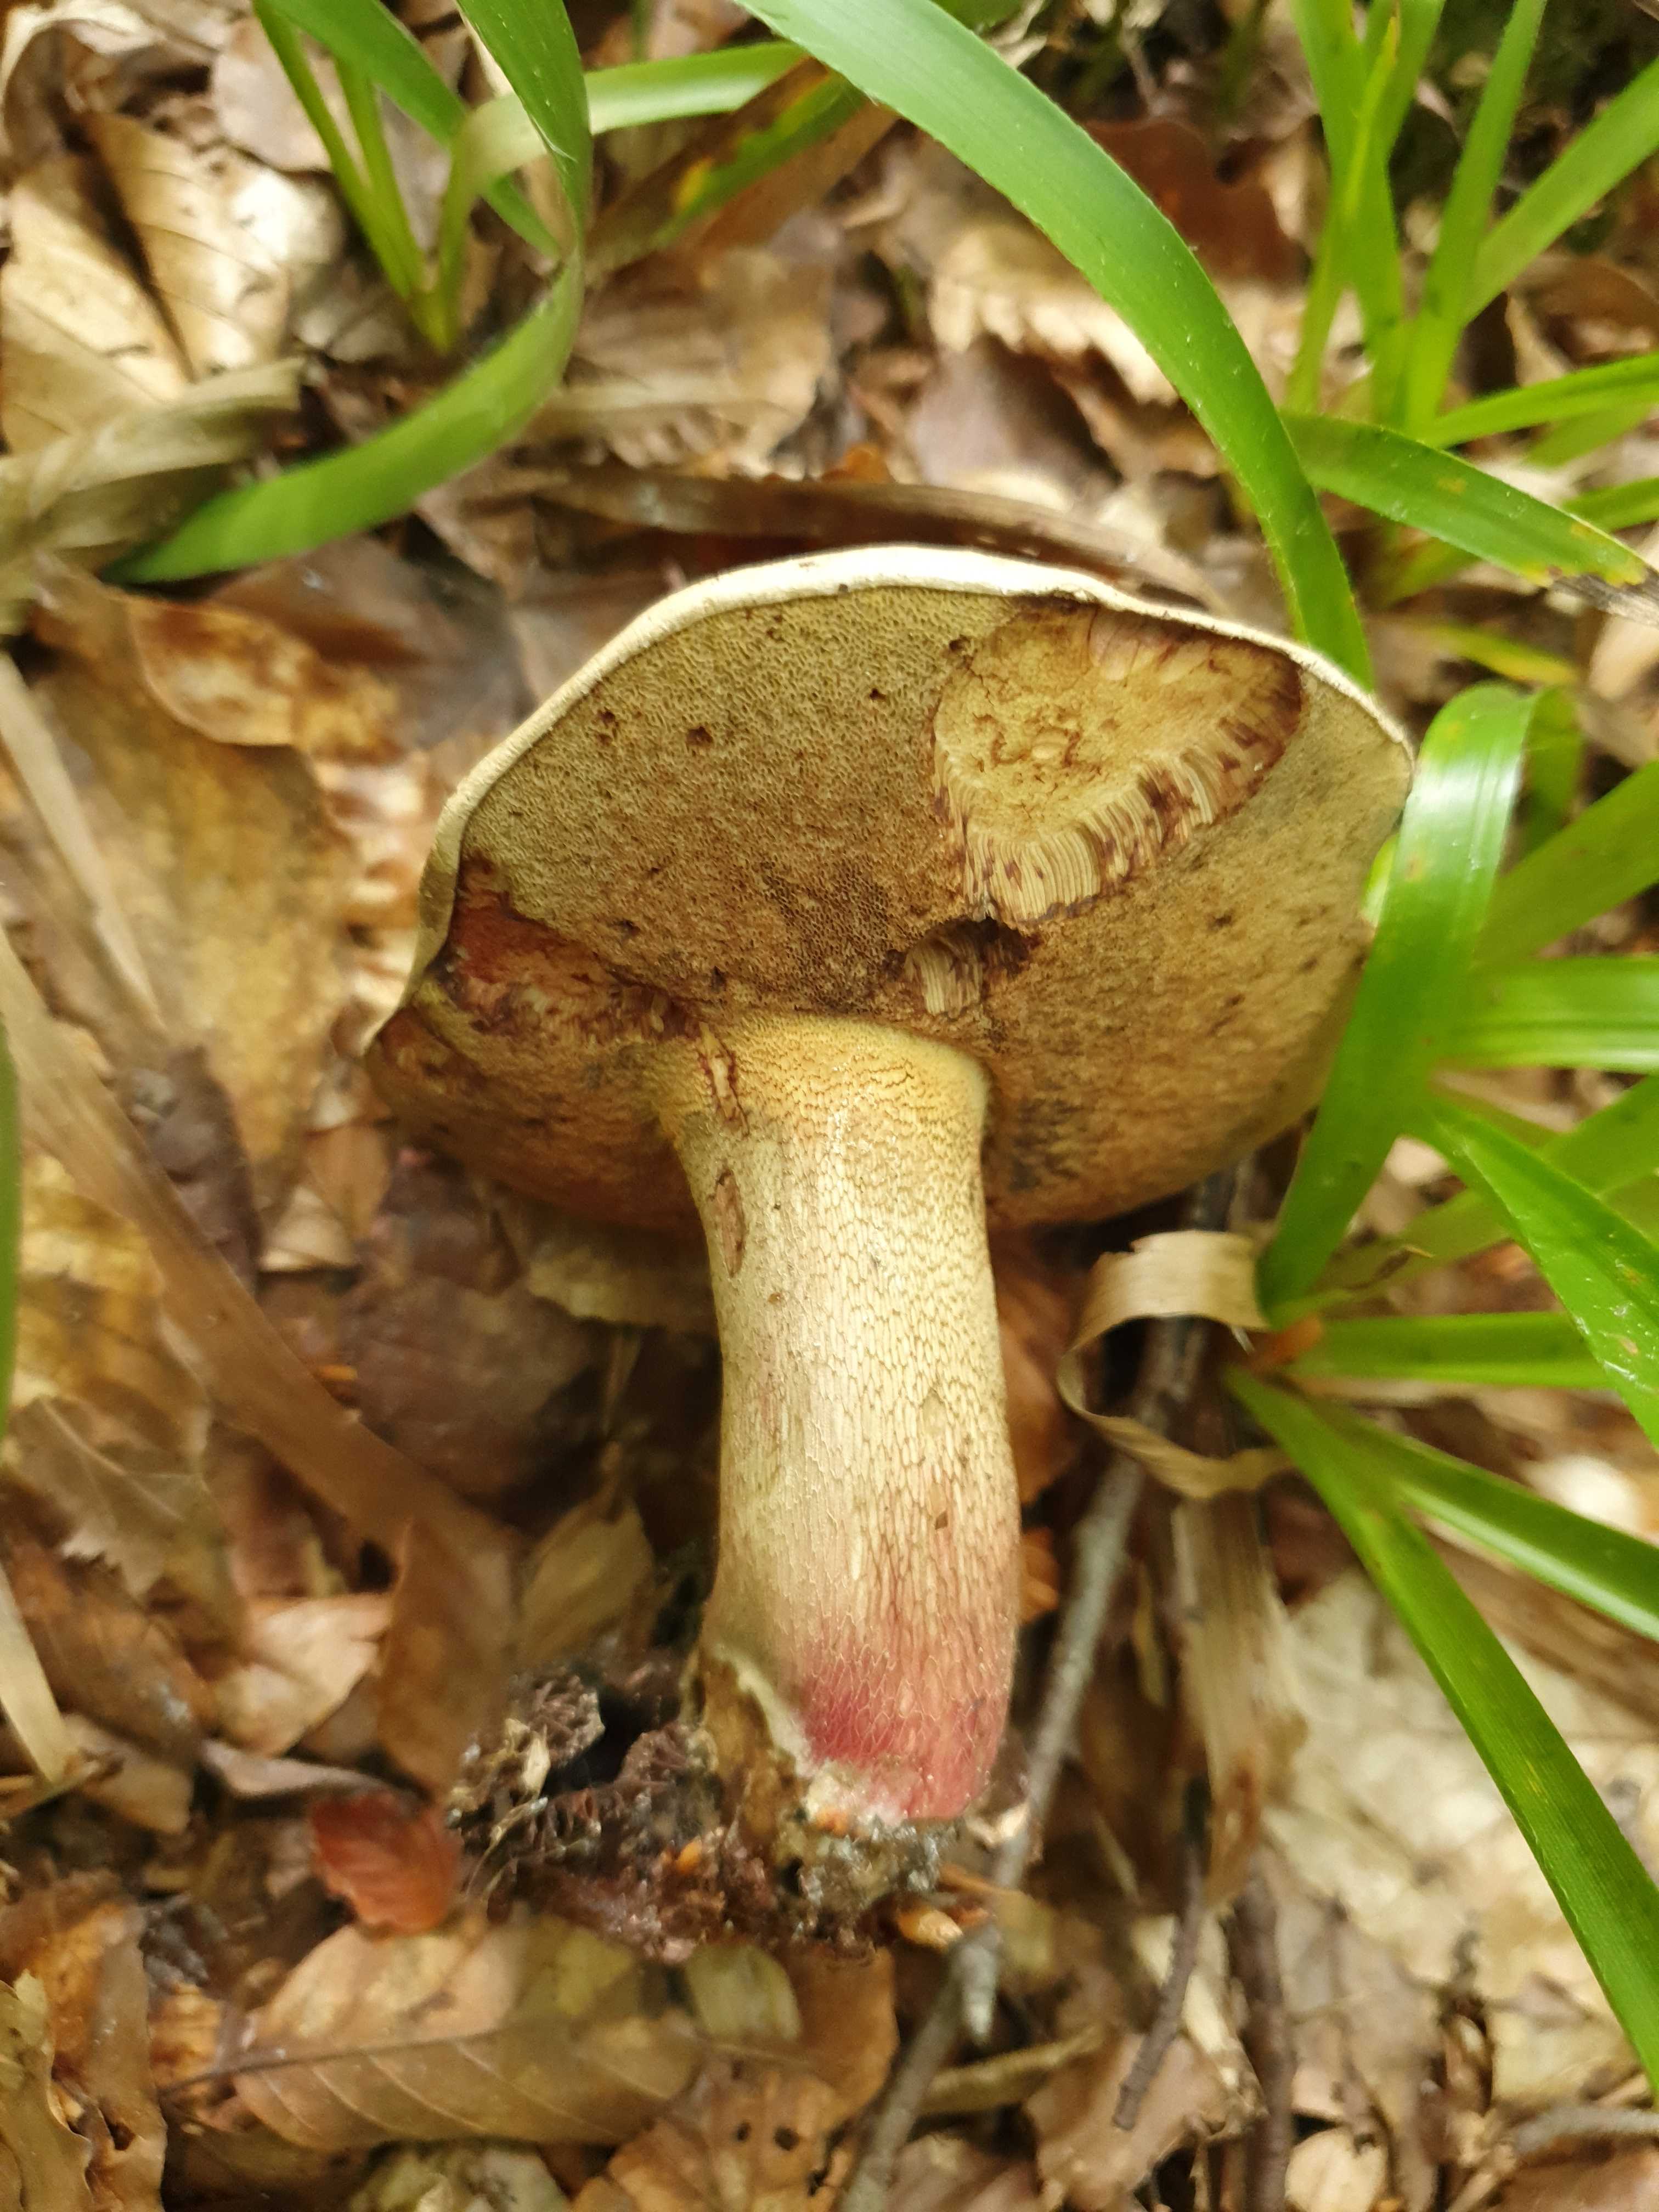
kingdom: Fungi
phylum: Basidiomycota
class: Agaricomycetes
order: Boletales
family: Boletaceae
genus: Caloboletus
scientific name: Caloboletus calopus
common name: skønfodet rørhat
